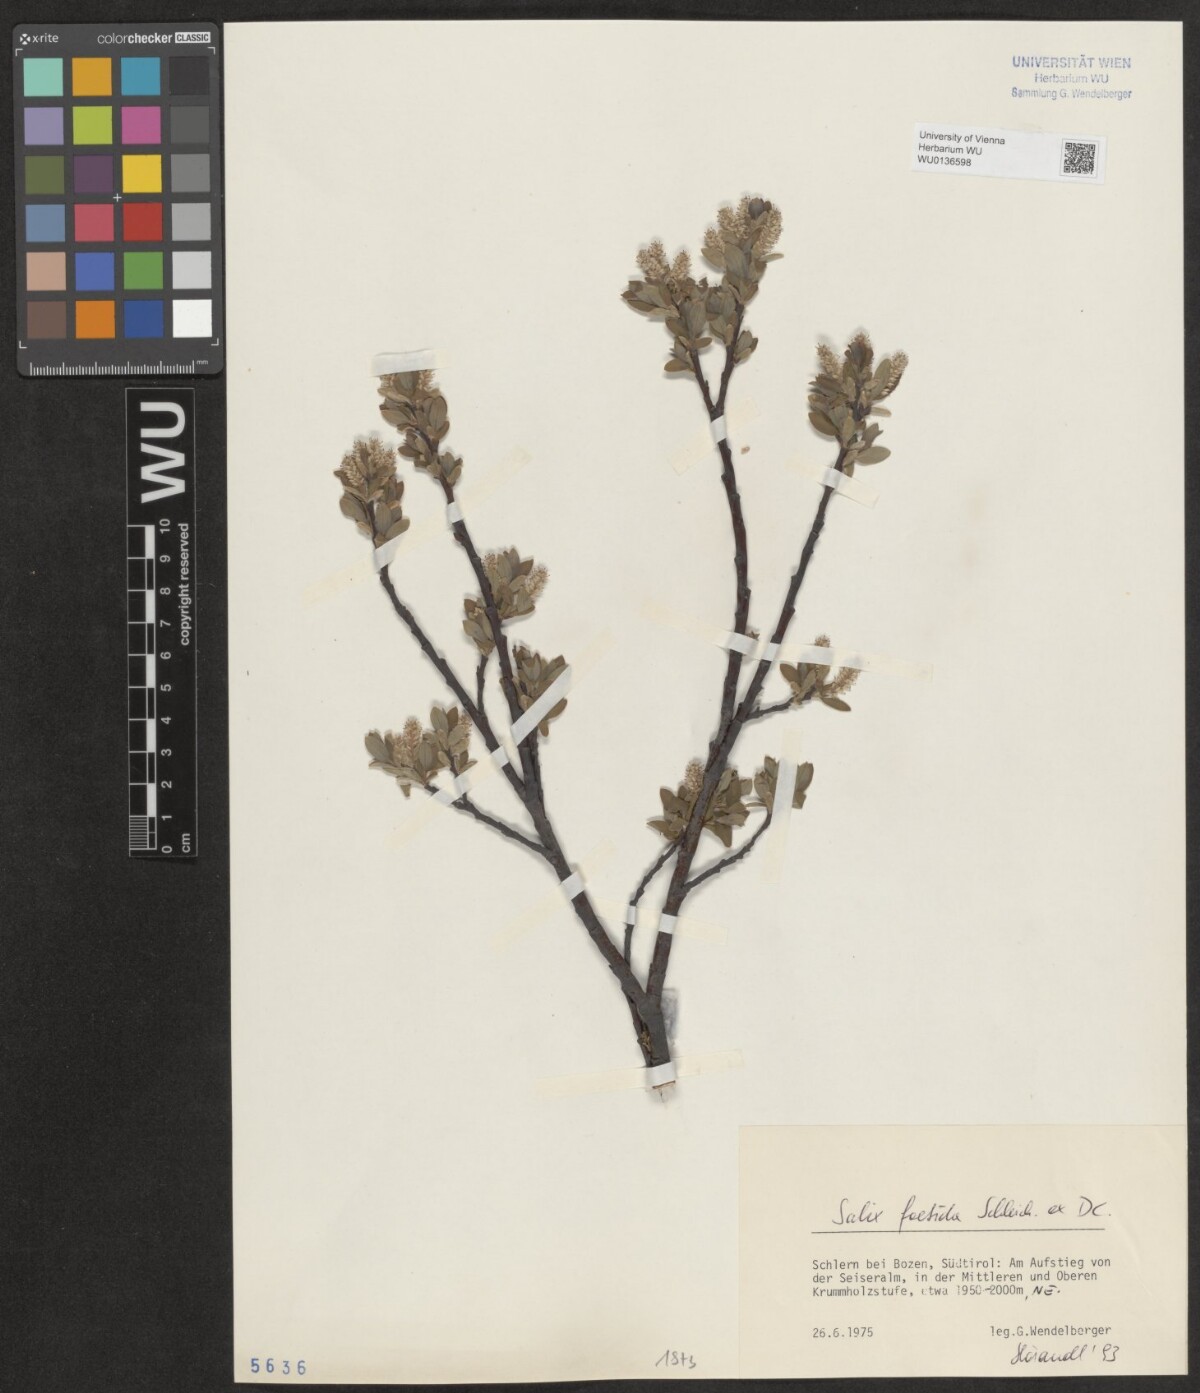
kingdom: Plantae
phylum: Tracheophyta
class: Magnoliopsida
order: Malpighiales
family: Salicaceae
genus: Salix
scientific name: Salix foetida
